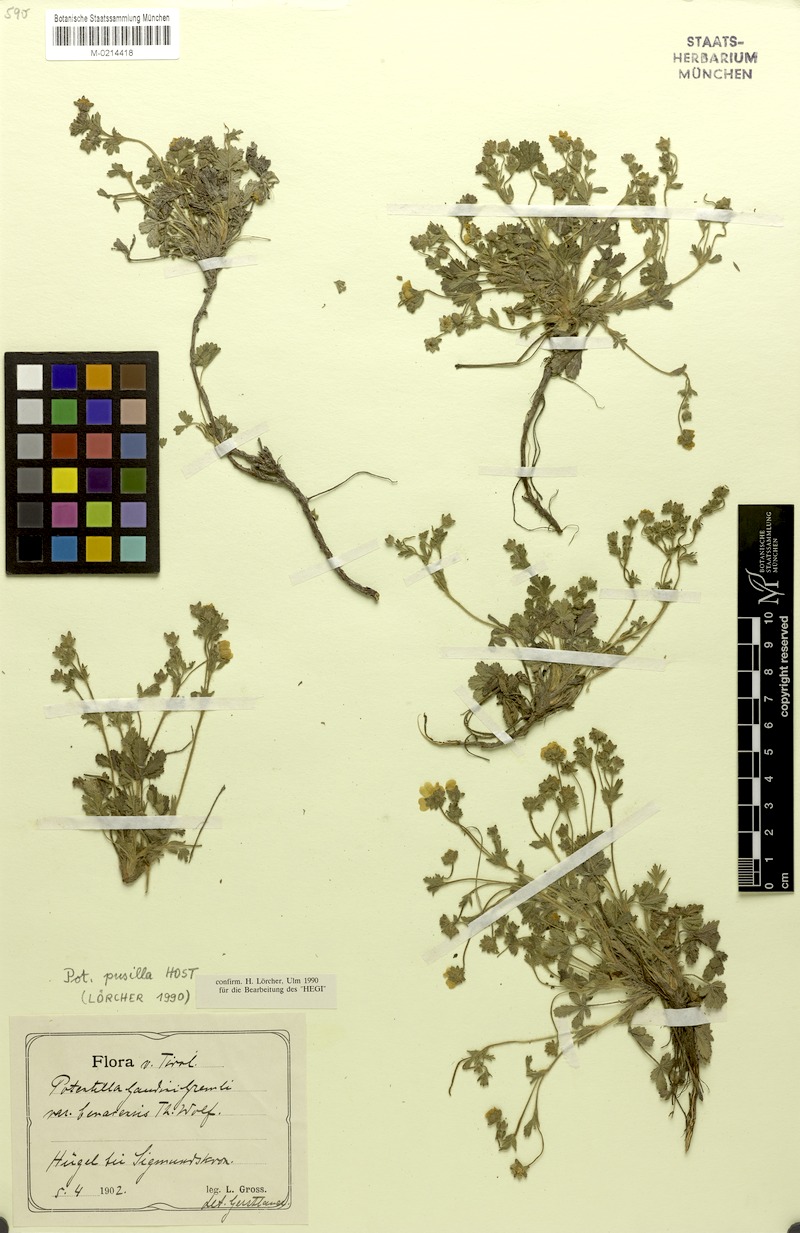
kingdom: Plantae
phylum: Tracheophyta
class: Magnoliopsida
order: Rosales
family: Rosaceae
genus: Potentilla
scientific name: Potentilla pusilla
